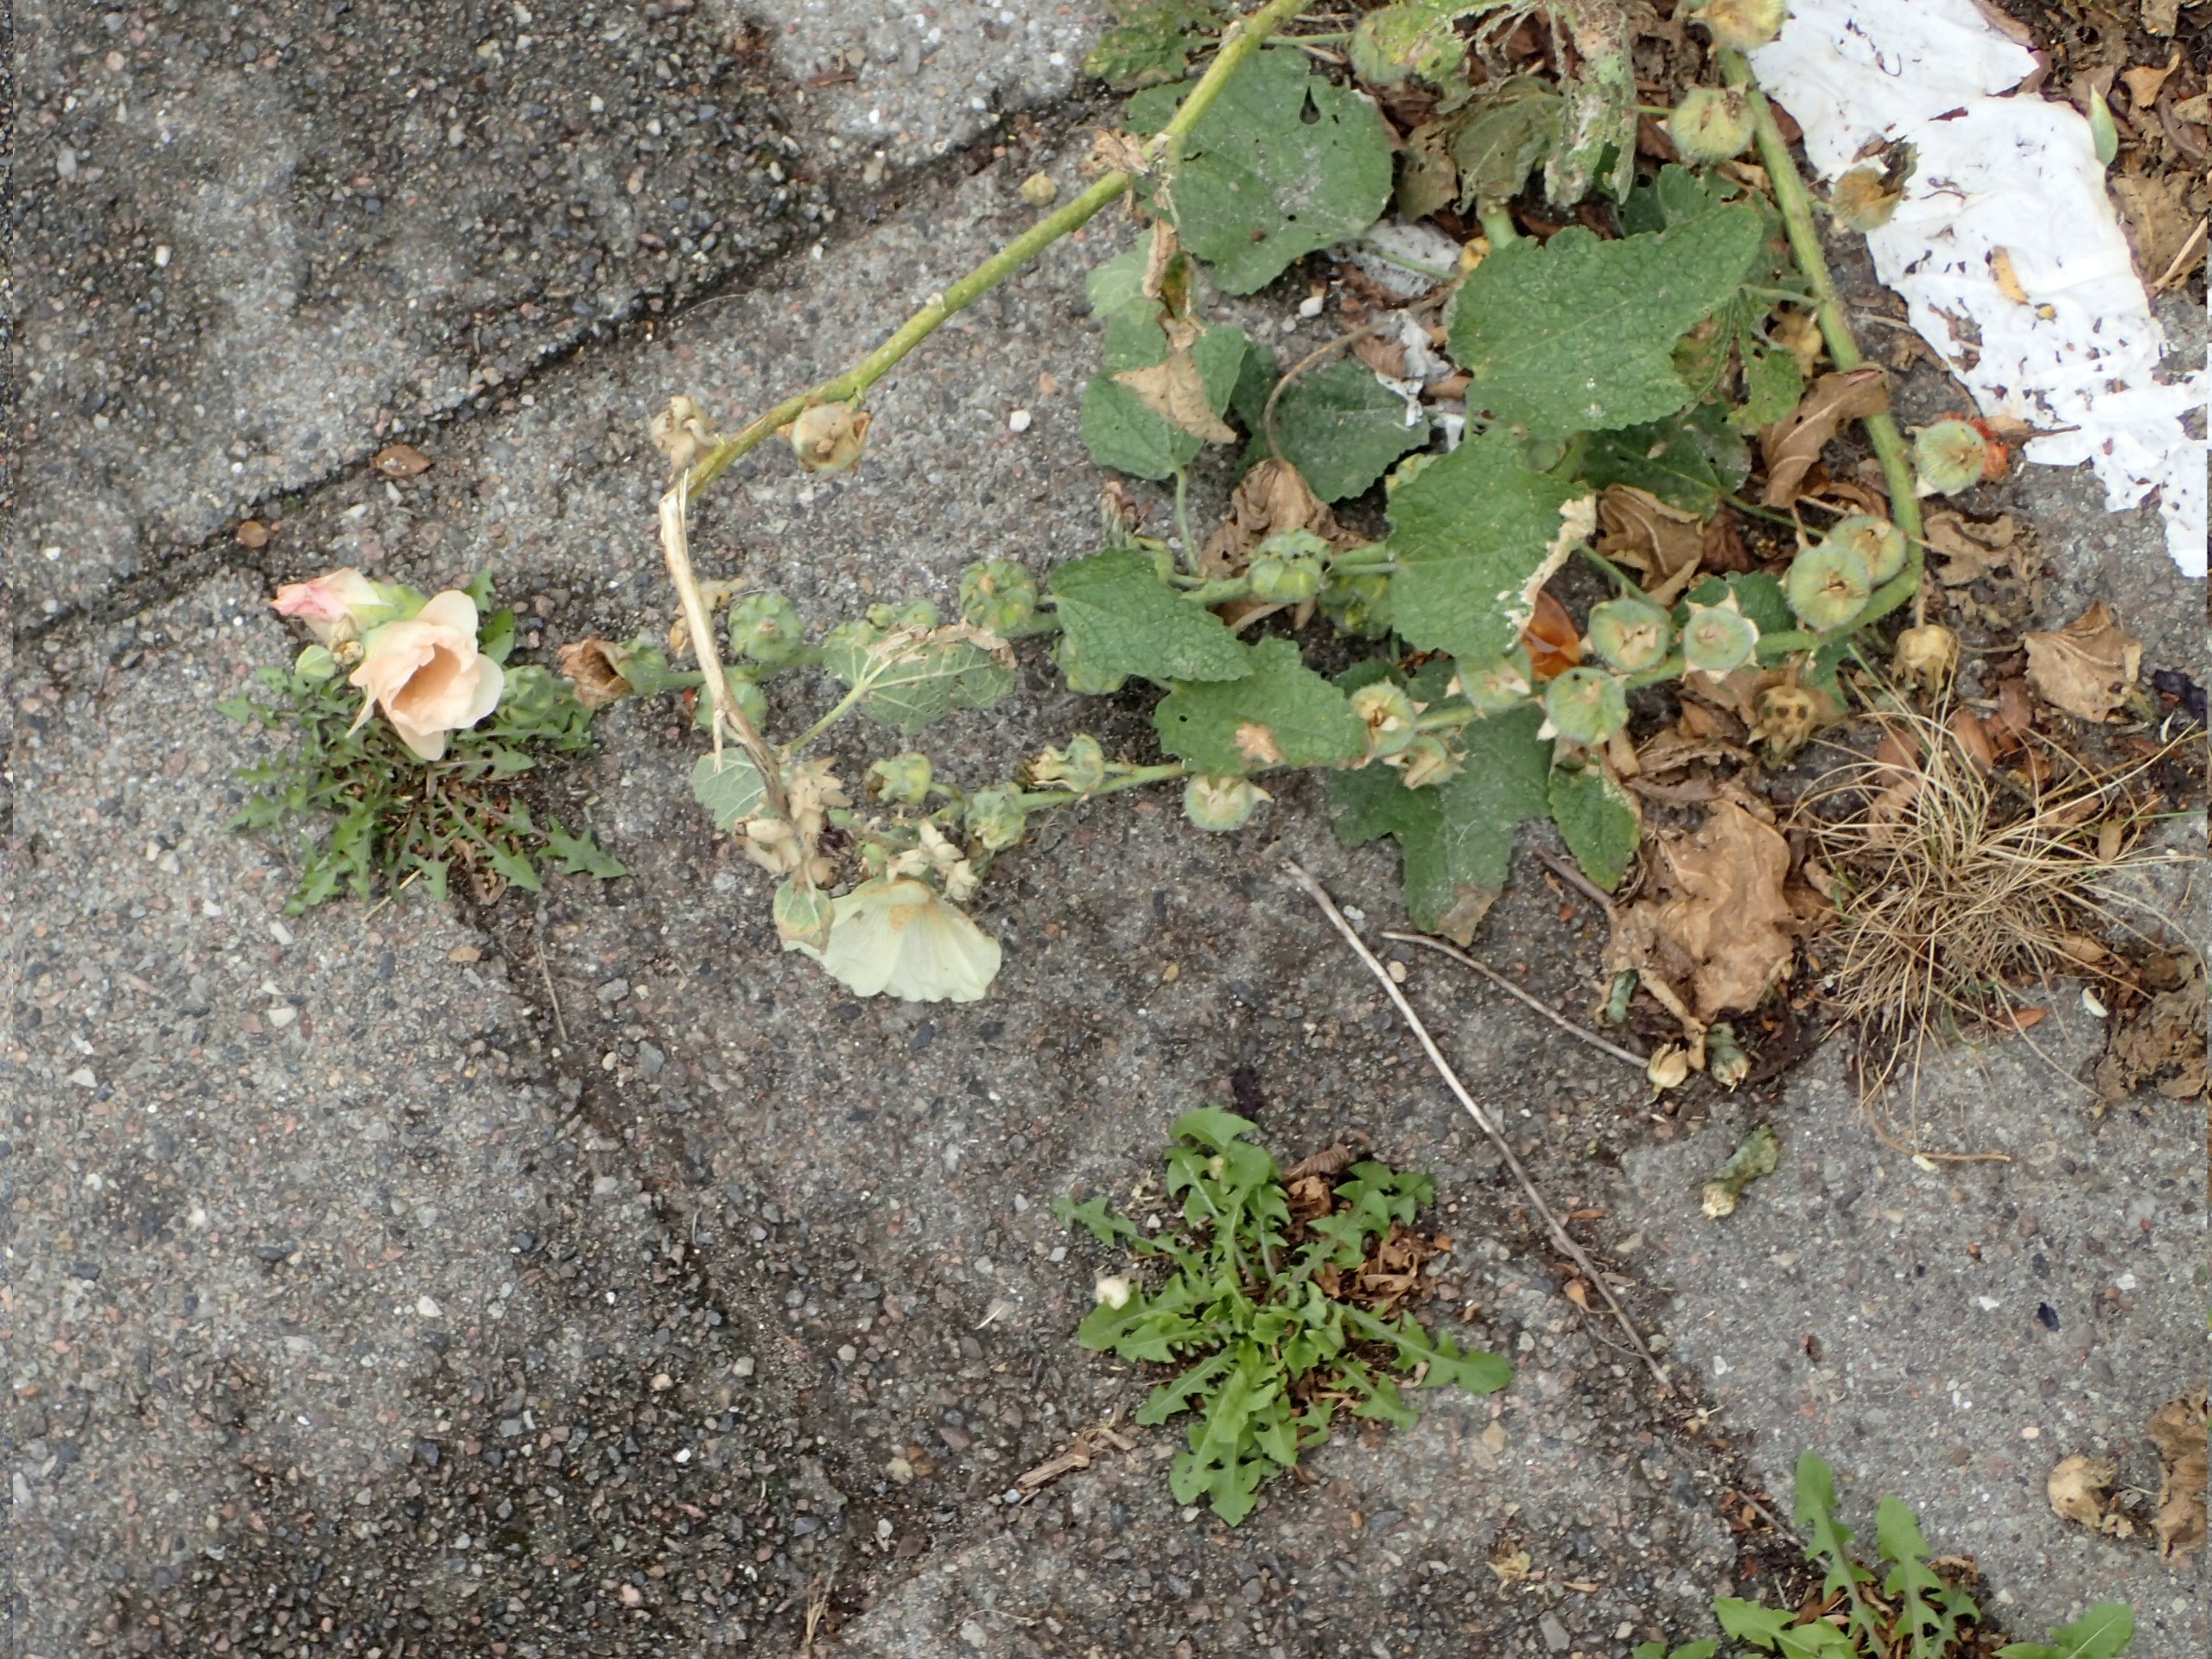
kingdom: Plantae
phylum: Tracheophyta
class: Magnoliopsida
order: Malvales
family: Malvaceae
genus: Alcea
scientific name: Alcea rosea
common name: Have-stokrose
